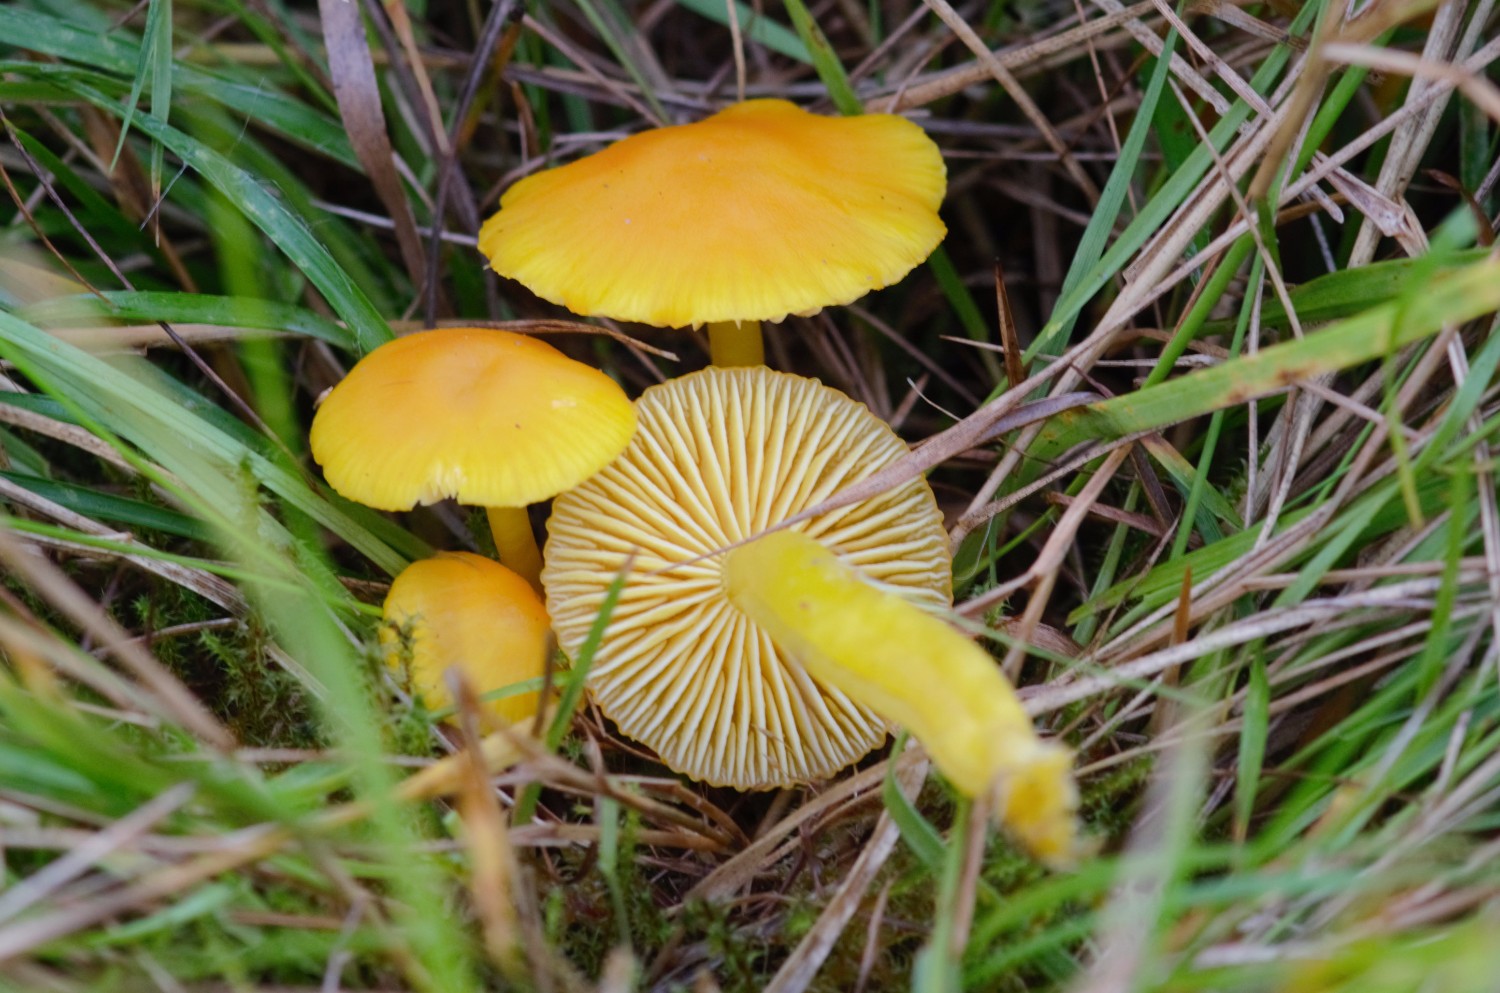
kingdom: Fungi
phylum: Basidiomycota
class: Agaricomycetes
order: Agaricales
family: Hygrophoraceae
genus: Hygrocybe
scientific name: Hygrocybe ceracea
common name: voksgul vokshat
